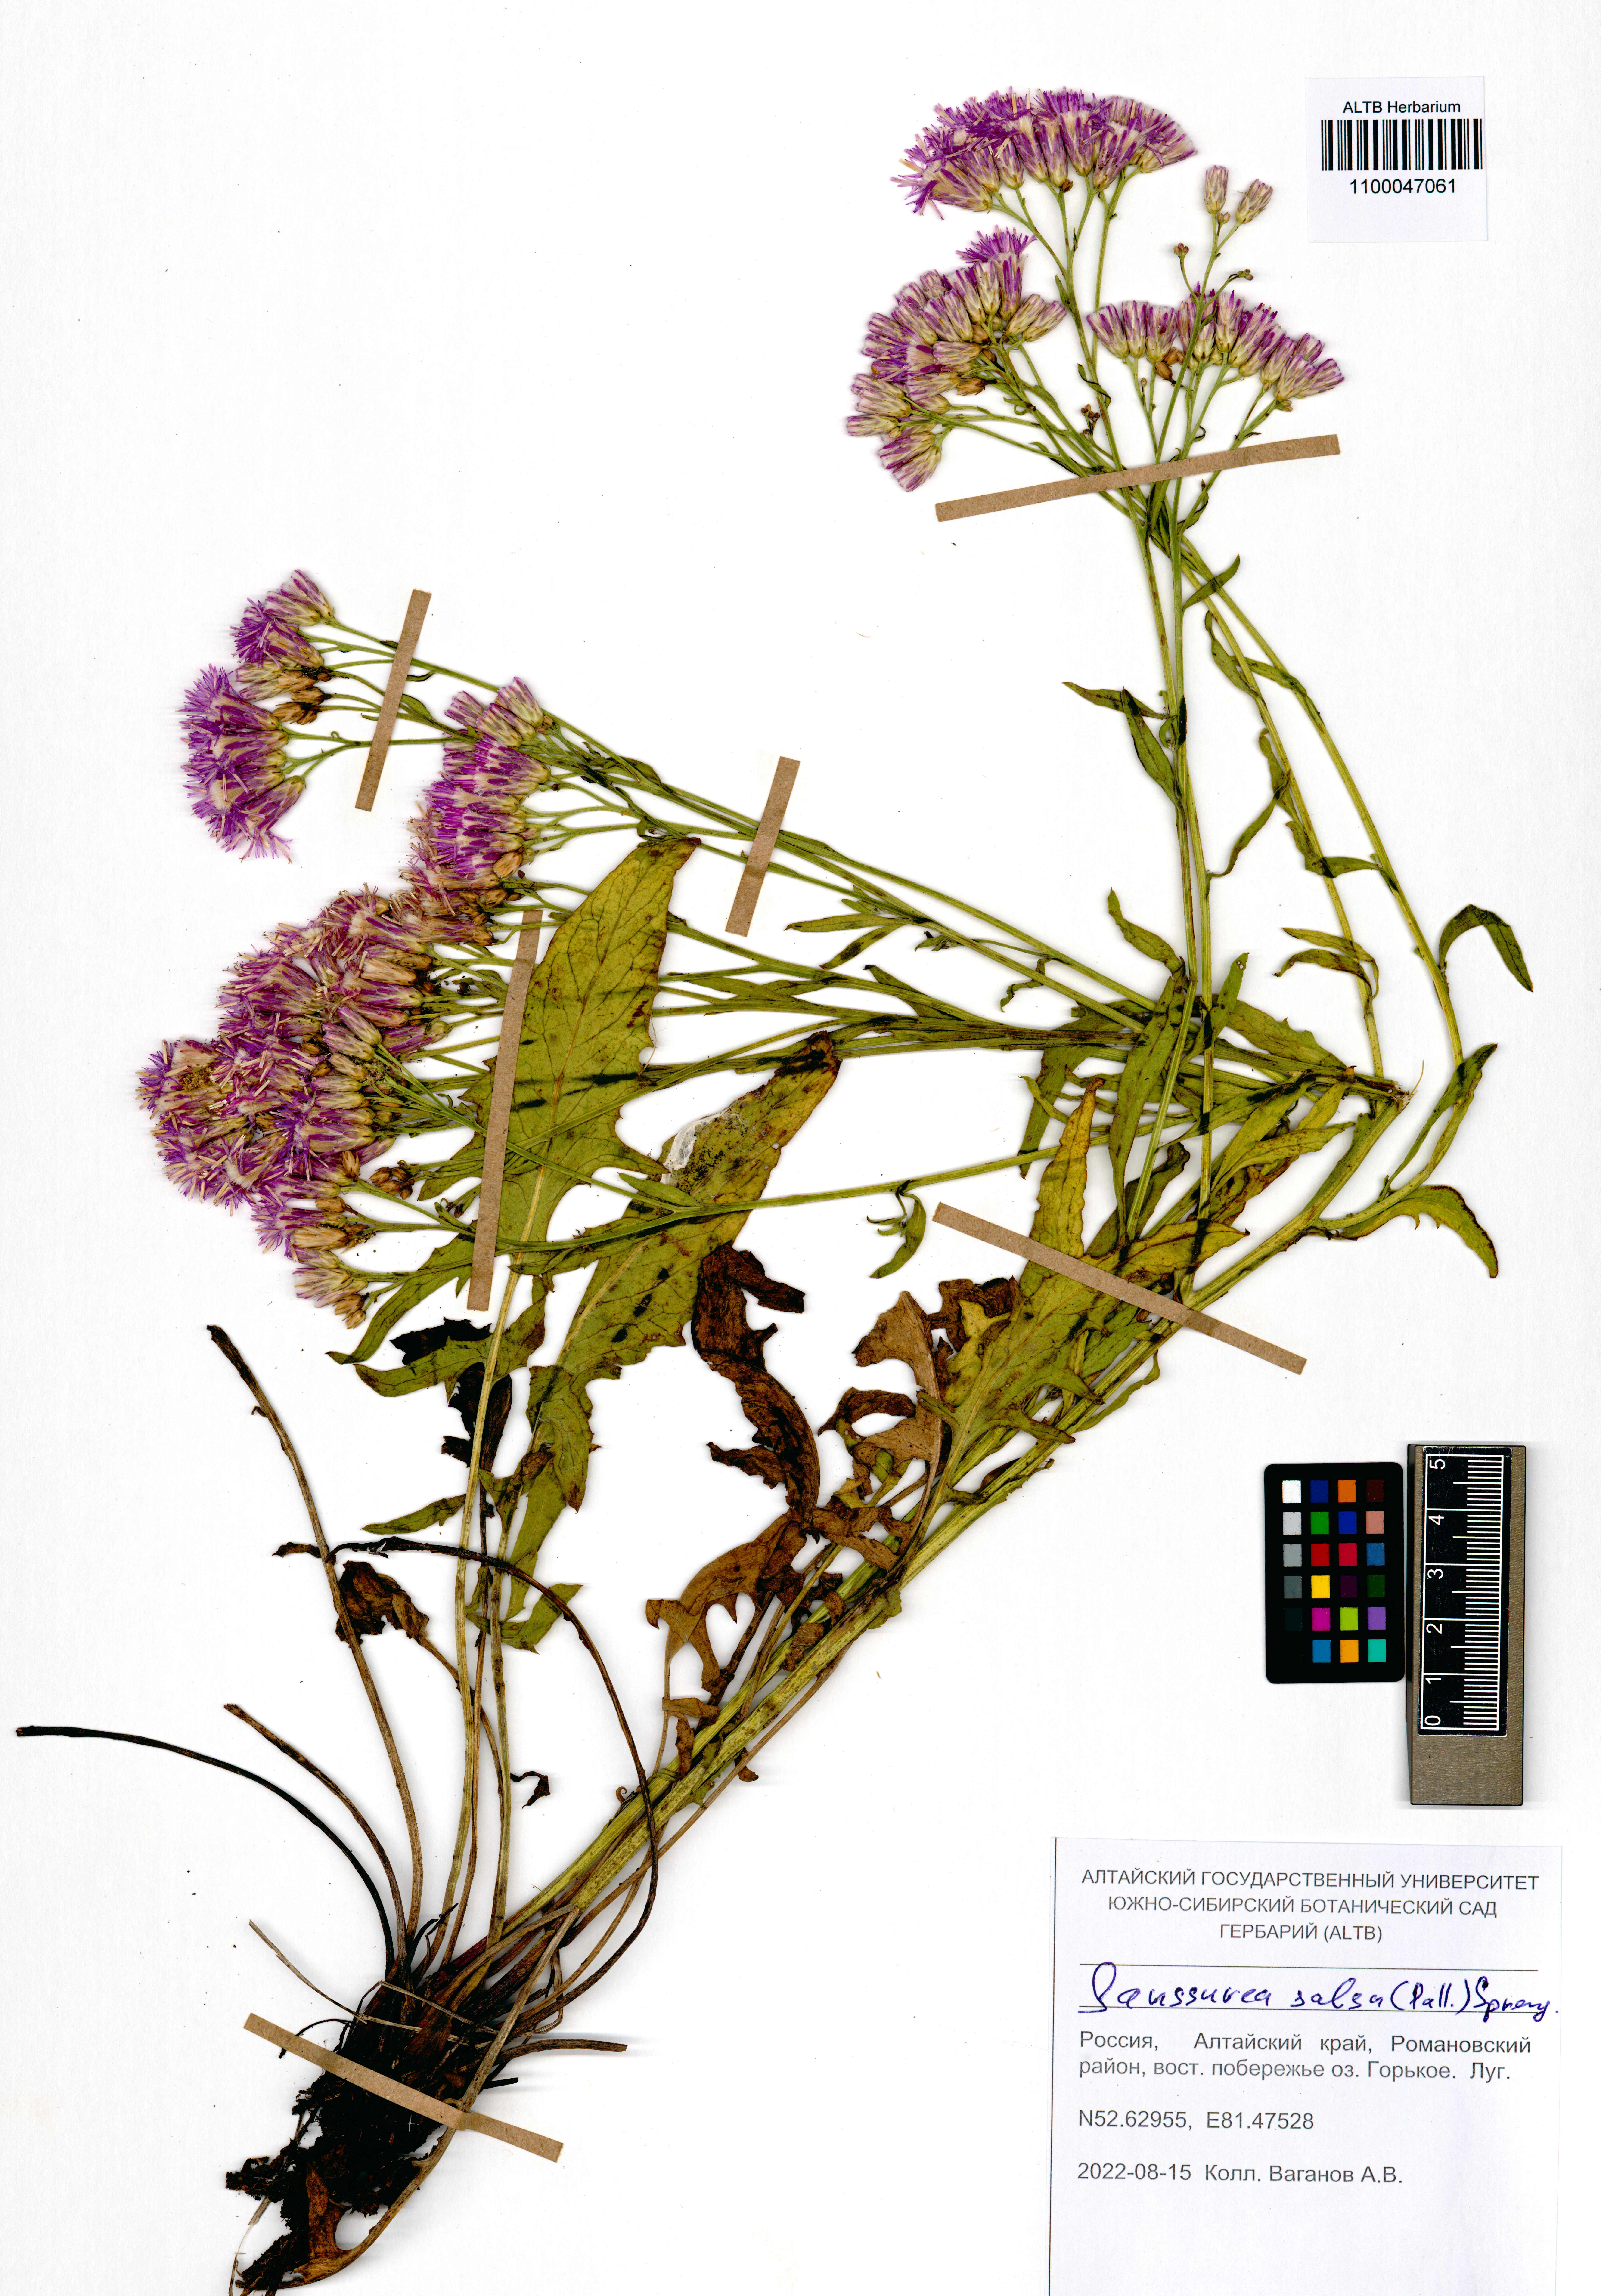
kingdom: Plantae
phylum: Tracheophyta
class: Magnoliopsida
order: Asterales
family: Asteraceae
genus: Saussurea
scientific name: Saussurea salsa
